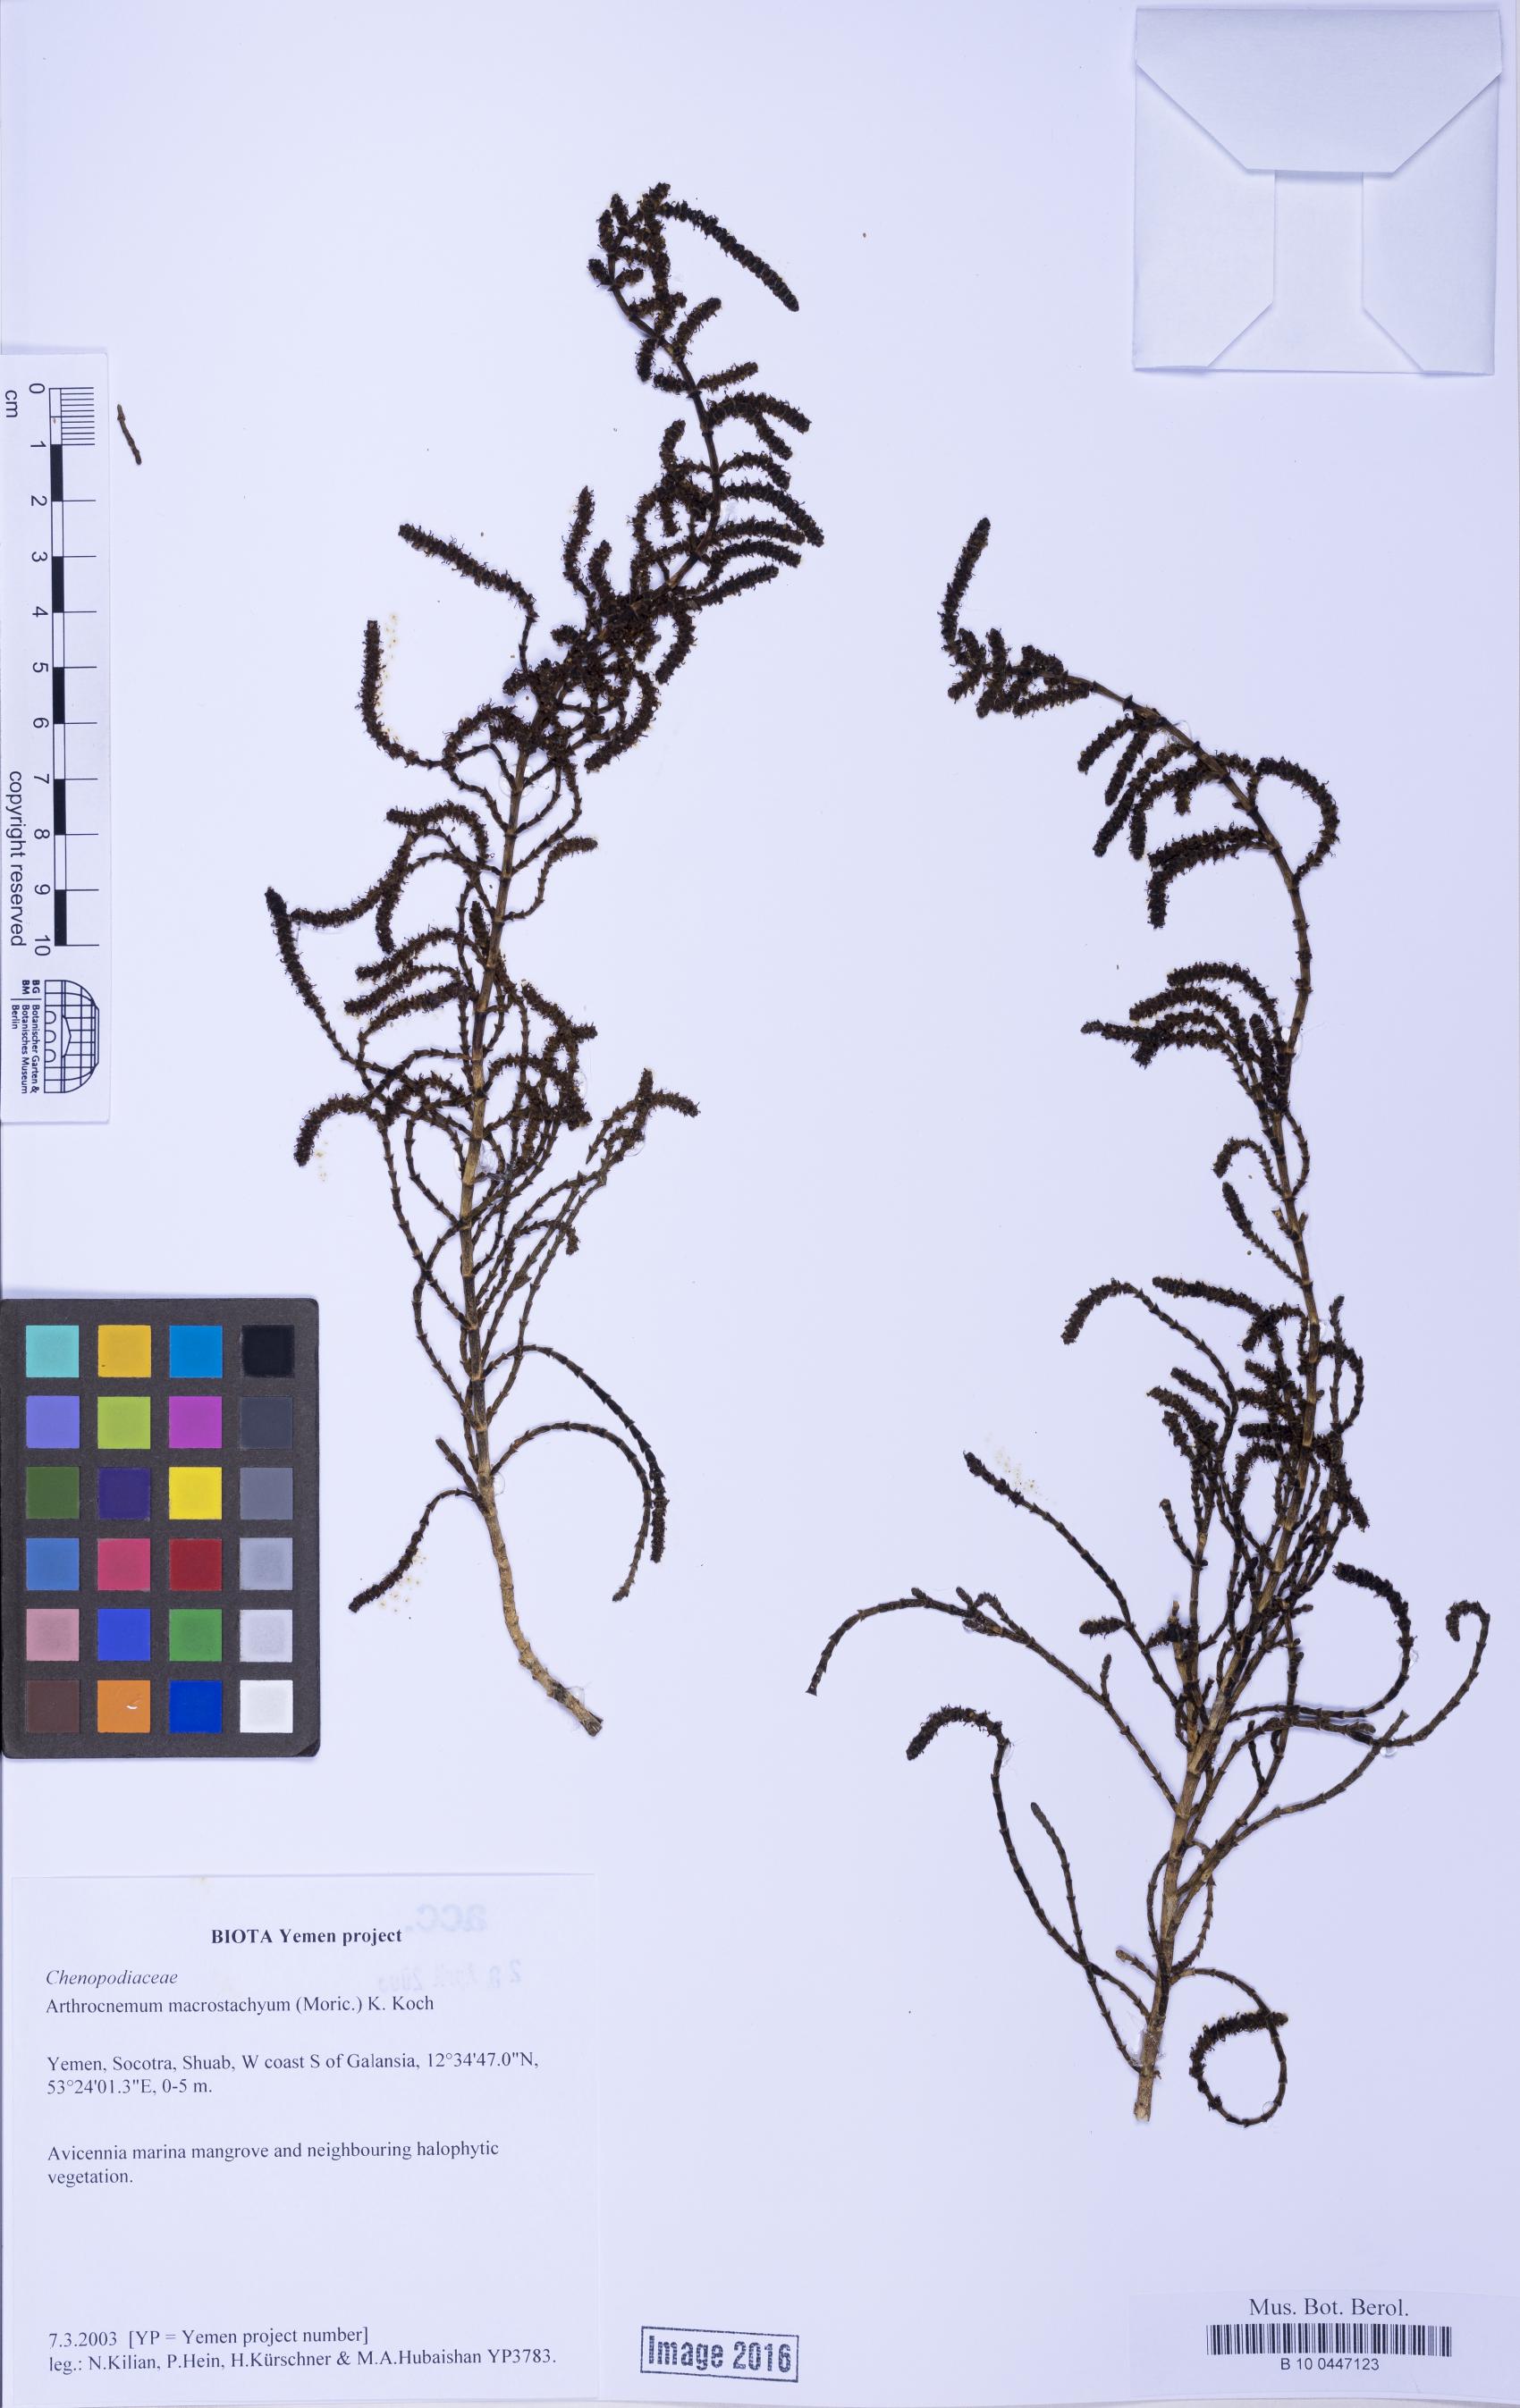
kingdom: Plantae
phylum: Tracheophyta
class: Magnoliopsida
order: Caryophyllales
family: Amaranthaceae
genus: Arthrocaulon
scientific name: Arthrocaulon macrostachyum
